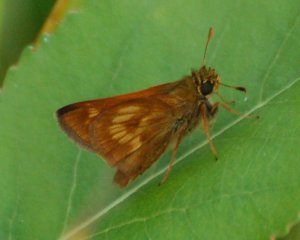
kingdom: Animalia
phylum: Arthropoda
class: Insecta
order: Lepidoptera
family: Hesperiidae
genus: Polites
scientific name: Polites
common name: Long Dash Skipper
